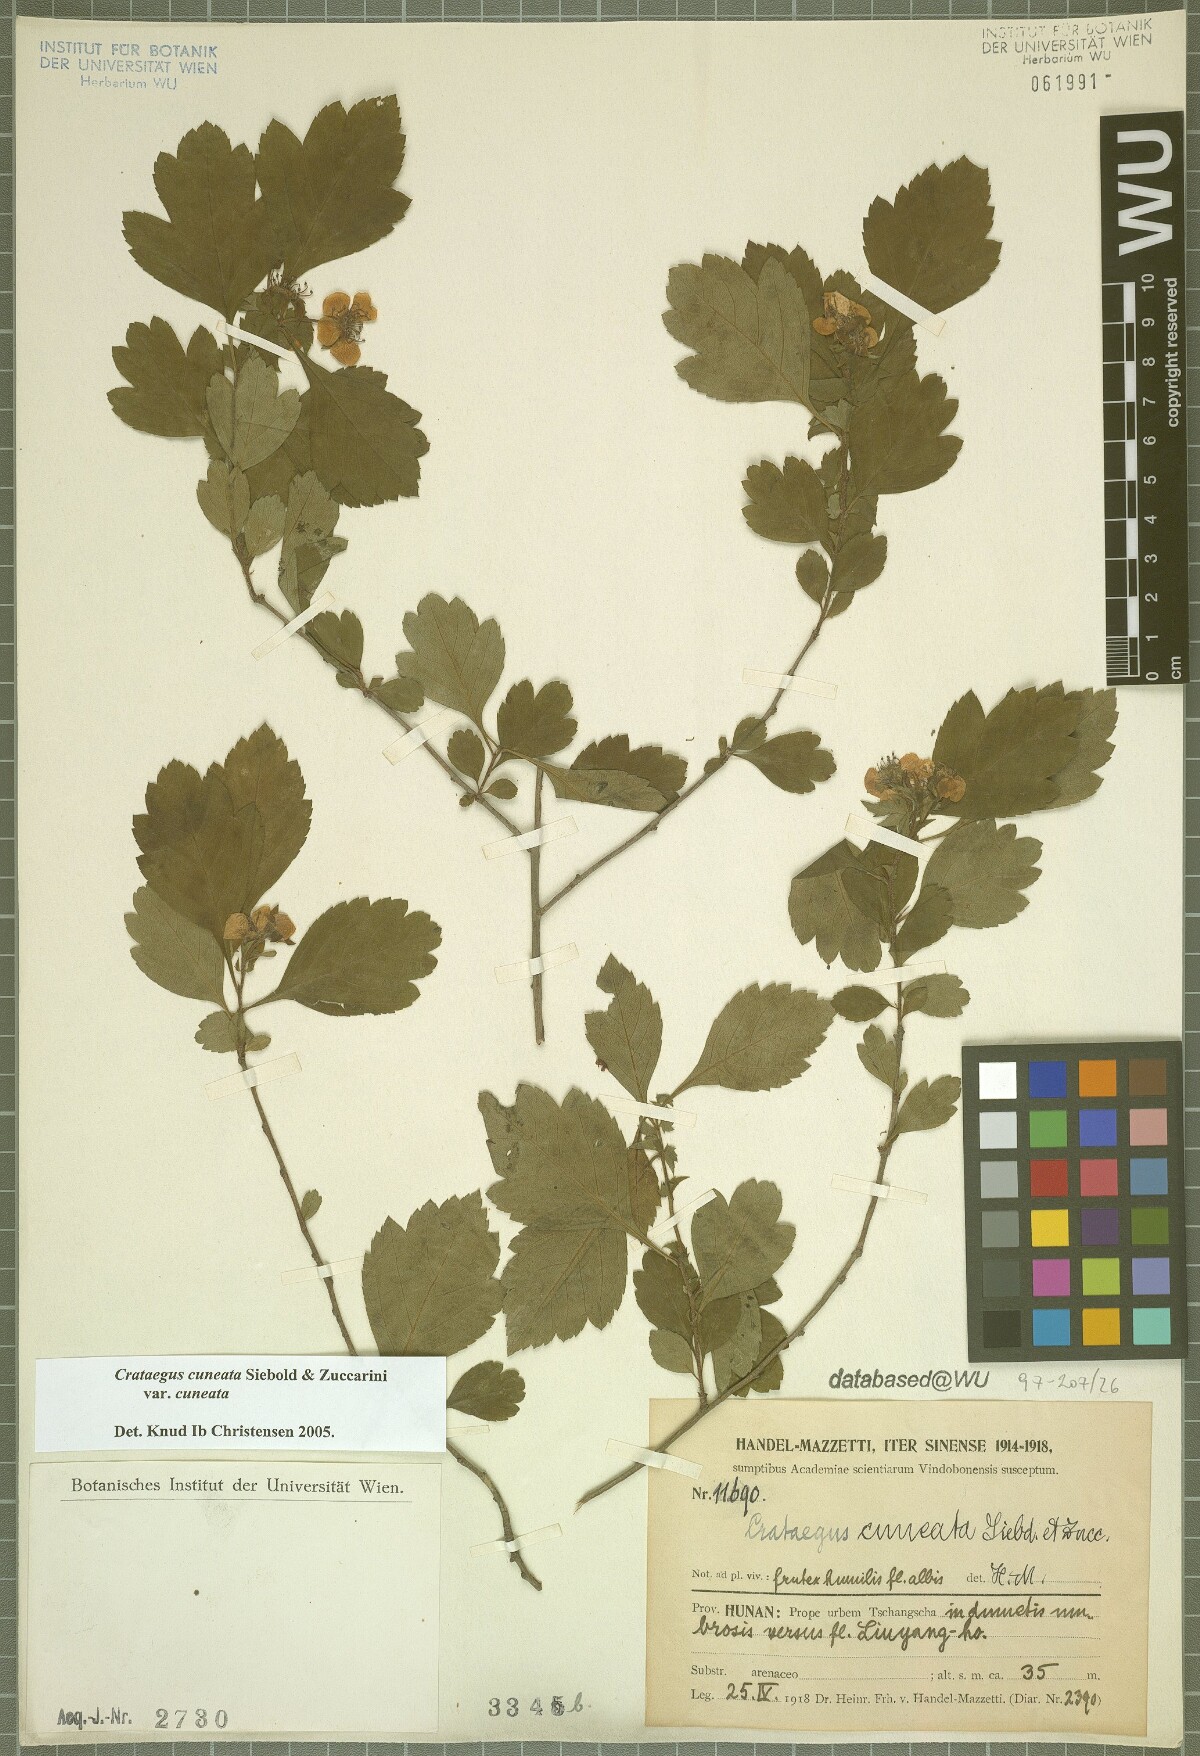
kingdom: Plantae
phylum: Tracheophyta
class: Magnoliopsida
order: Rosales
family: Rosaceae
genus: Crataegus
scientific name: Crataegus cuneata
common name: Chinese hawthorn
